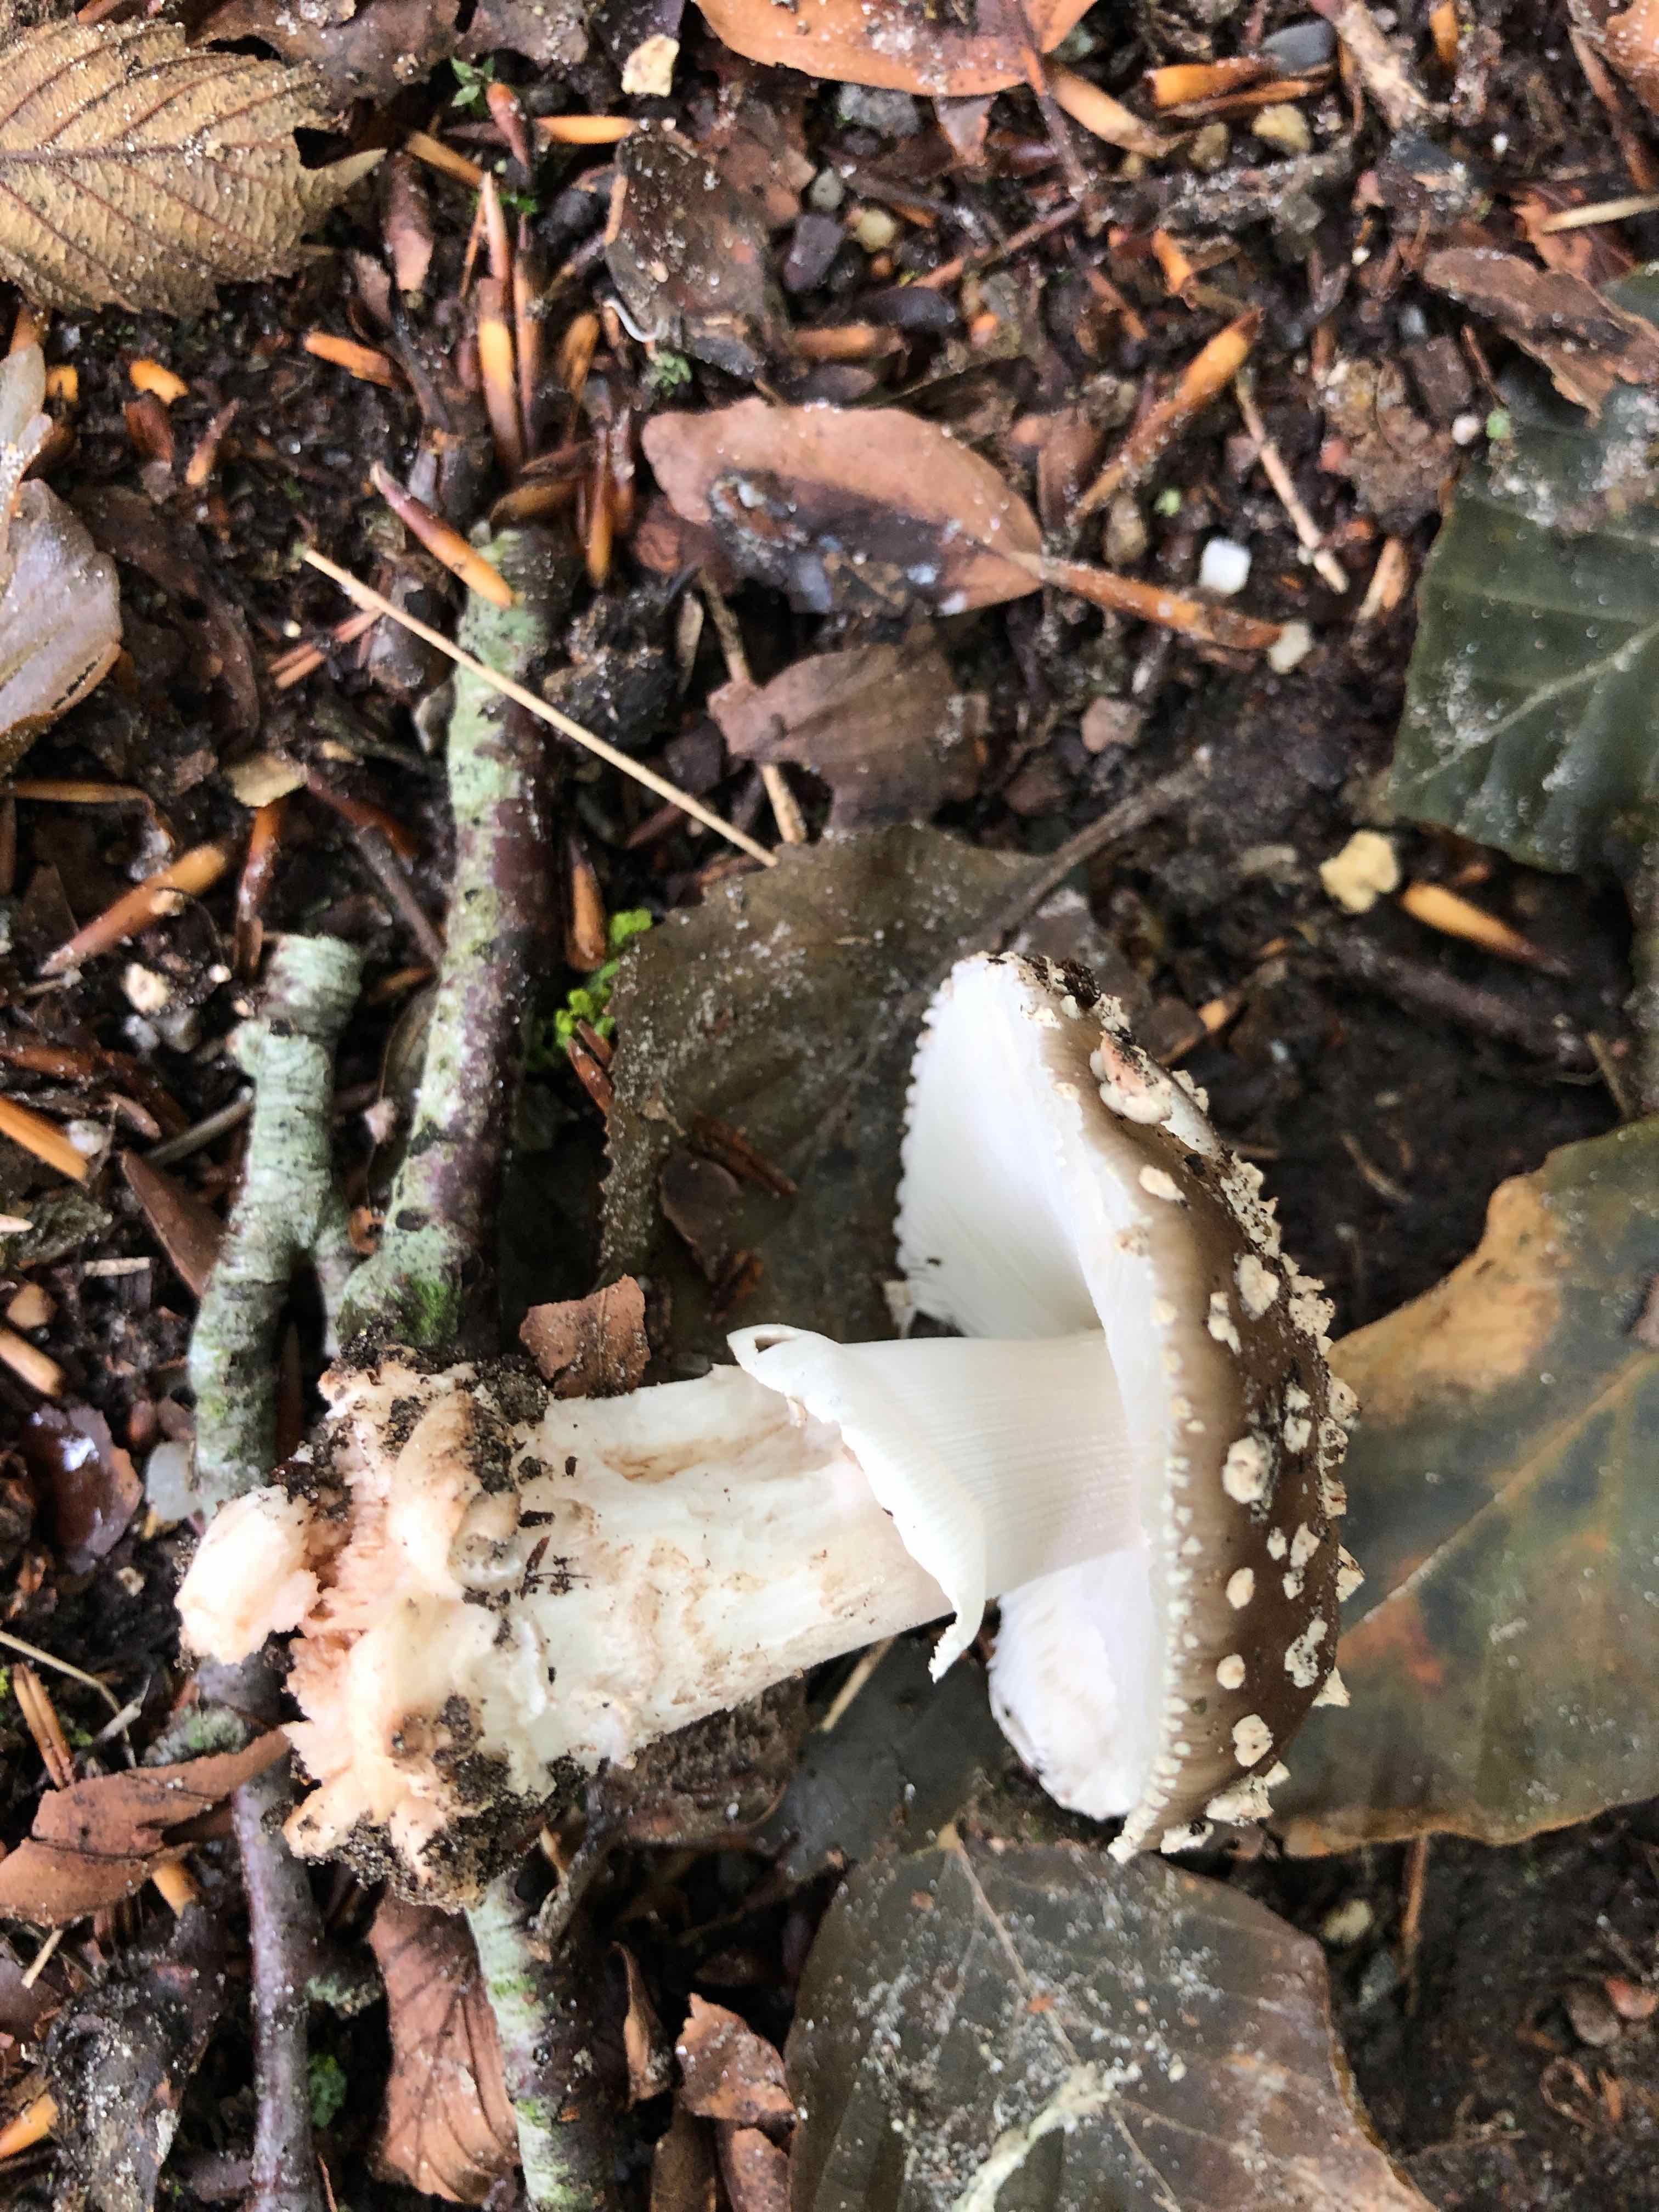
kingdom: Fungi
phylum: Basidiomycota
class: Agaricomycetes
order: Agaricales
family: Amanitaceae
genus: Amanita
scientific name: Amanita
